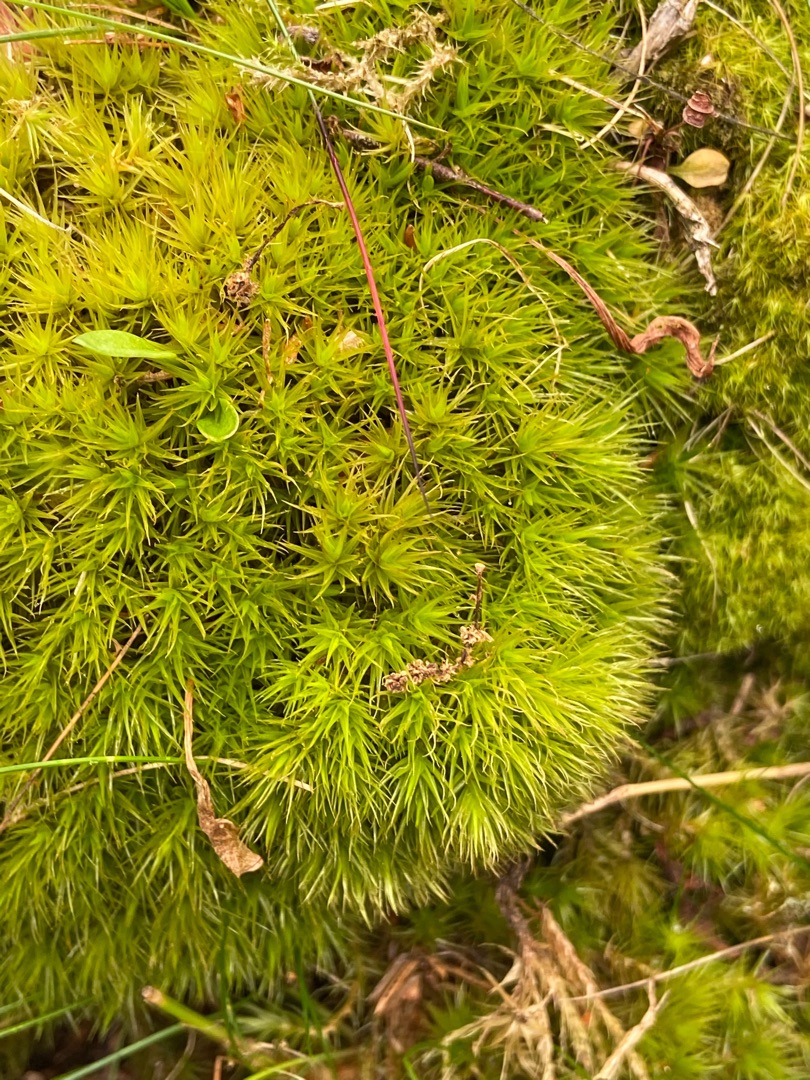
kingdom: Plantae
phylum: Bryophyta
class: Bryopsida
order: Dicranales
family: Dicranaceae
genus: Dicranum
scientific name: Dicranum scoparium
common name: Almindelig kløvtand
